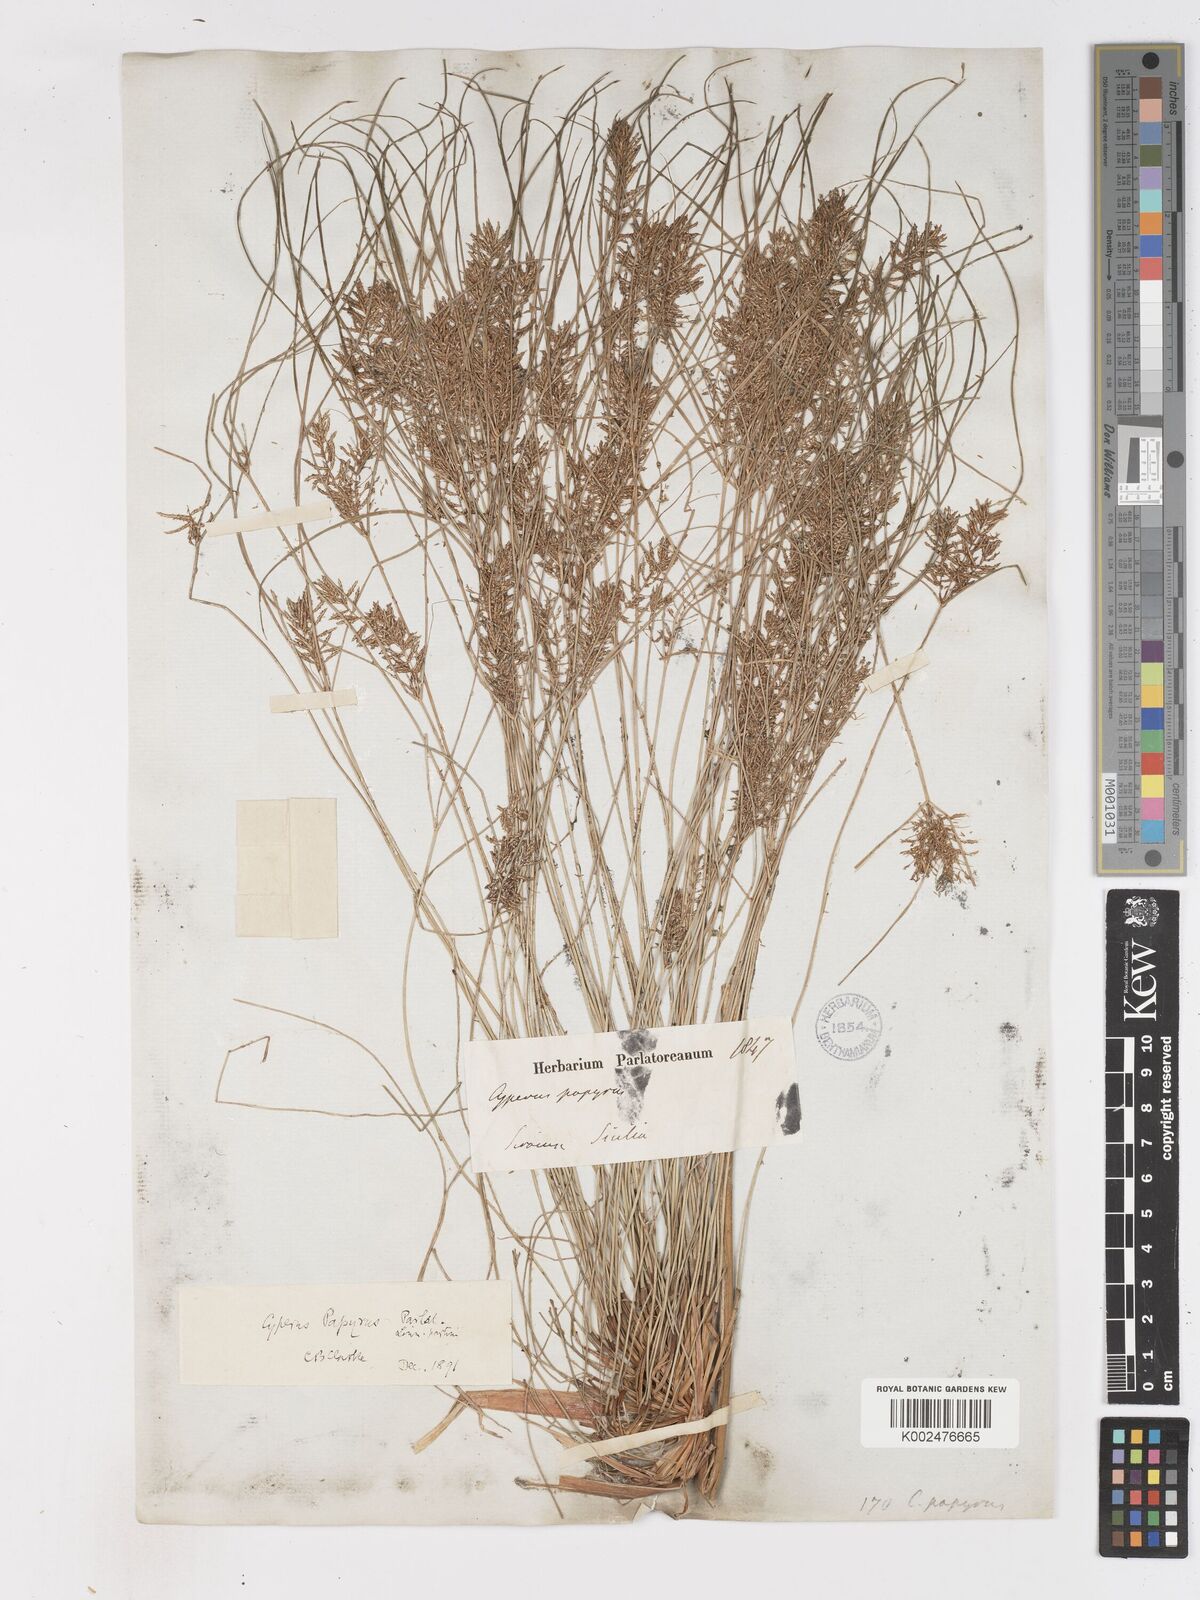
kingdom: Plantae
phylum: Tracheophyta
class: Liliopsida
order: Poales
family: Cyperaceae
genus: Cyperus
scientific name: Cyperus papyrus
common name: Papyrus
